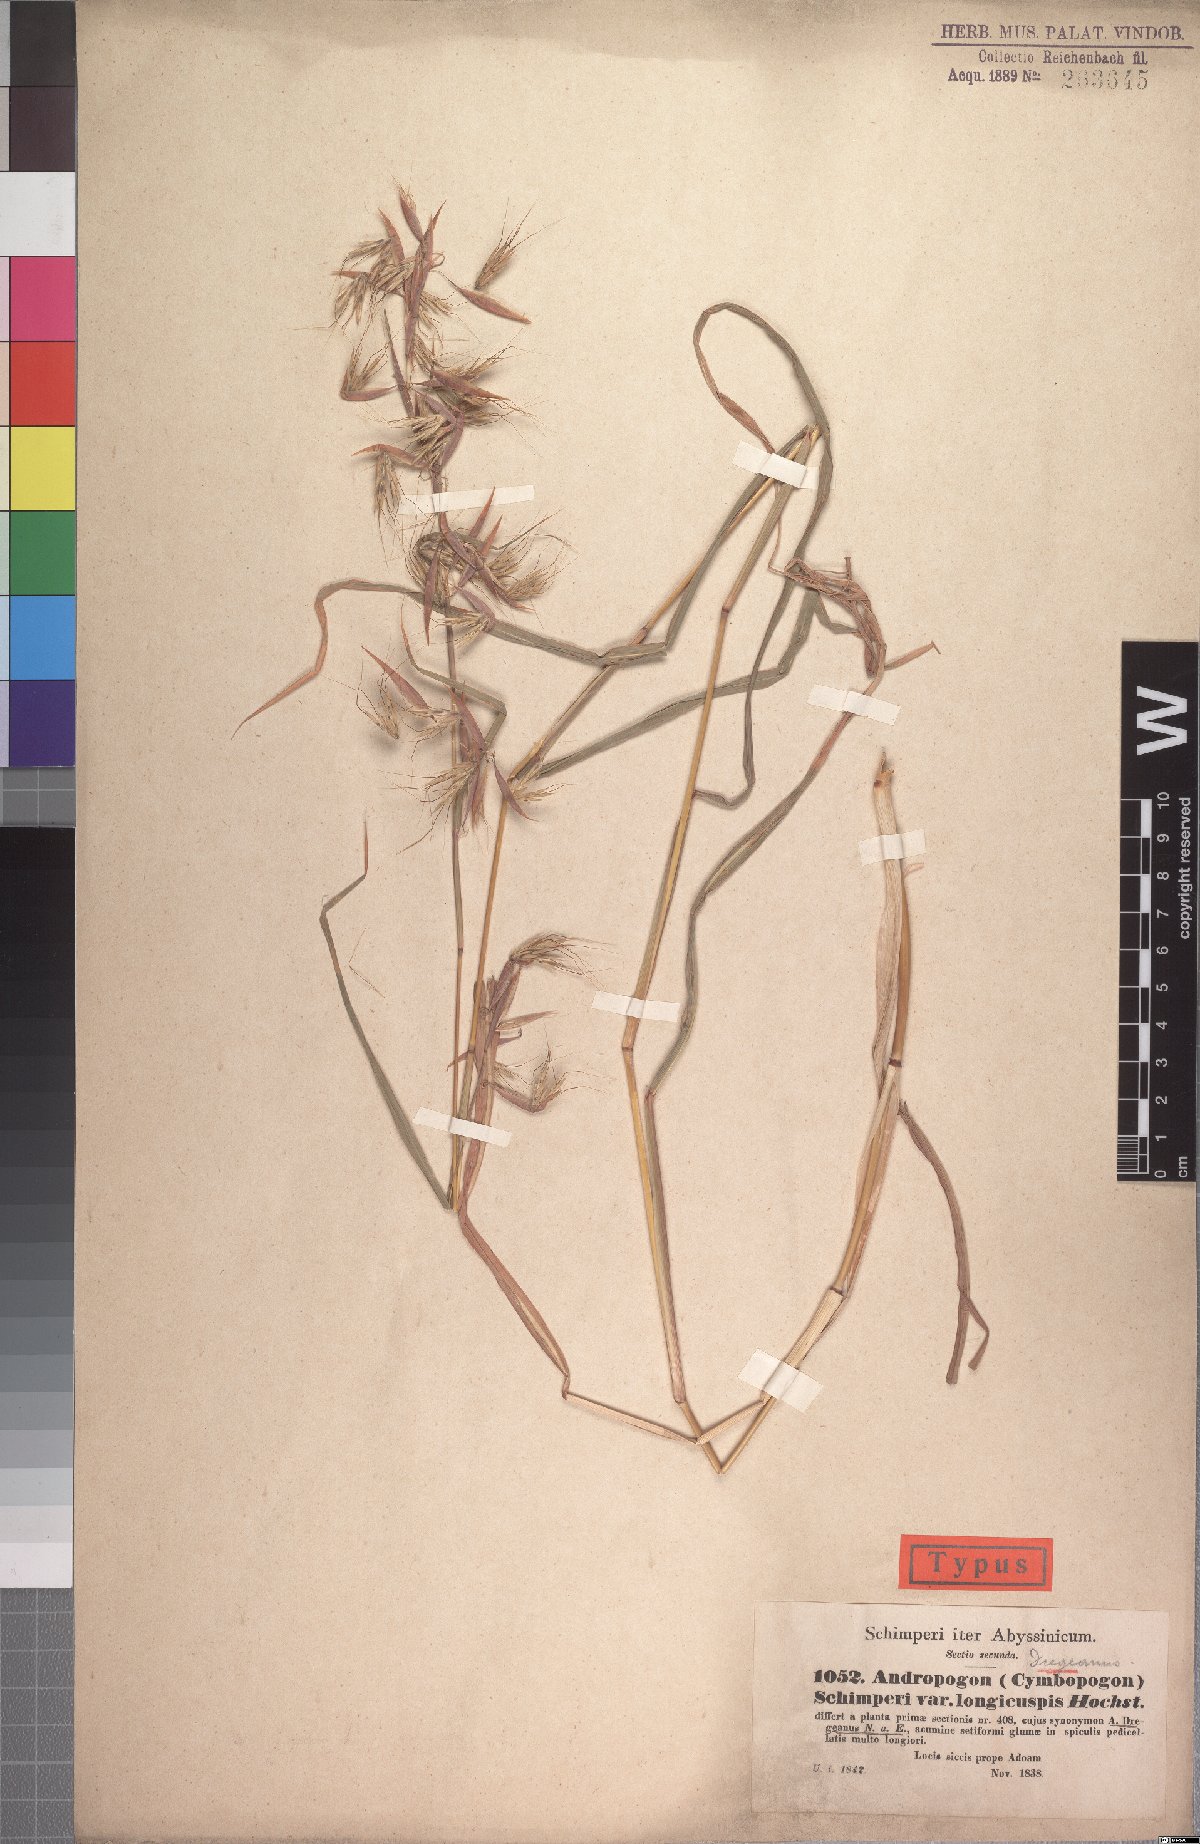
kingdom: Plantae
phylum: Tracheophyta
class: Liliopsida
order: Poales
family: Poaceae
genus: Hyparrhenia
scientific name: Hyparrhenia schimperi
